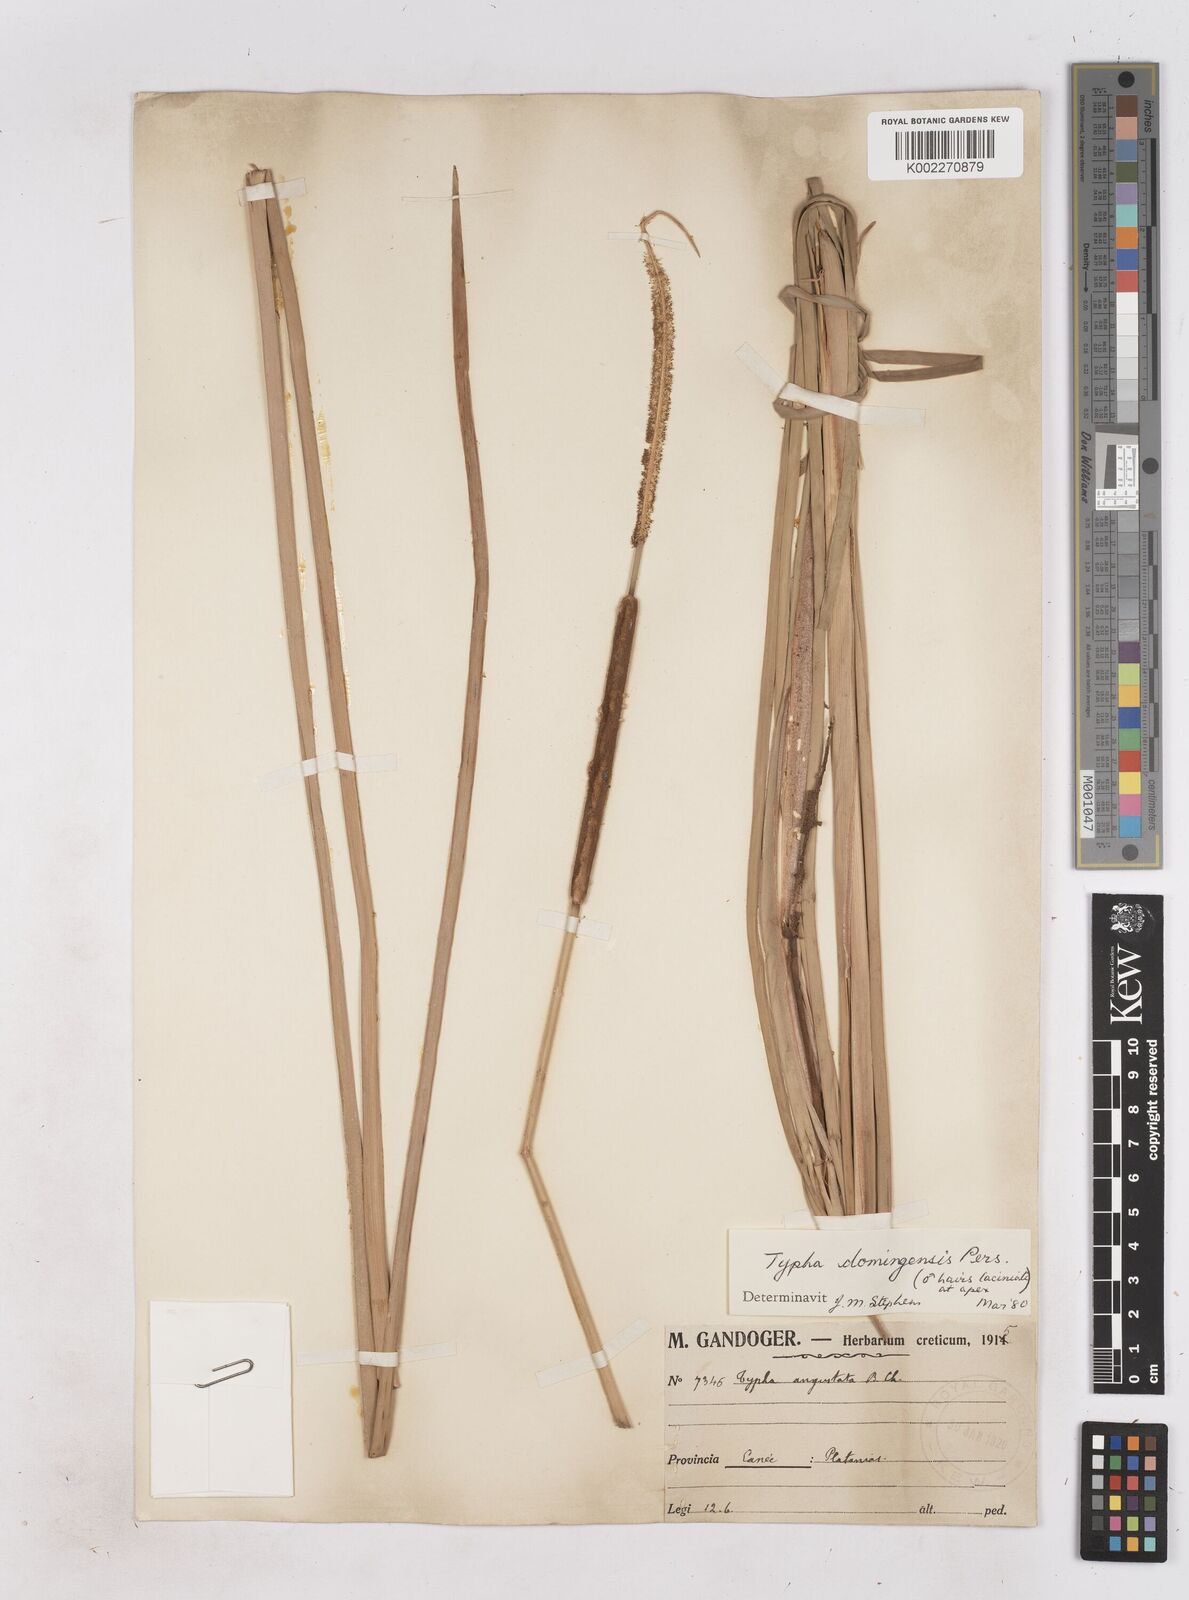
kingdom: Plantae
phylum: Tracheophyta
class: Liliopsida
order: Poales
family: Typhaceae
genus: Typha
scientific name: Typha domingensis
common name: Southern cattail
